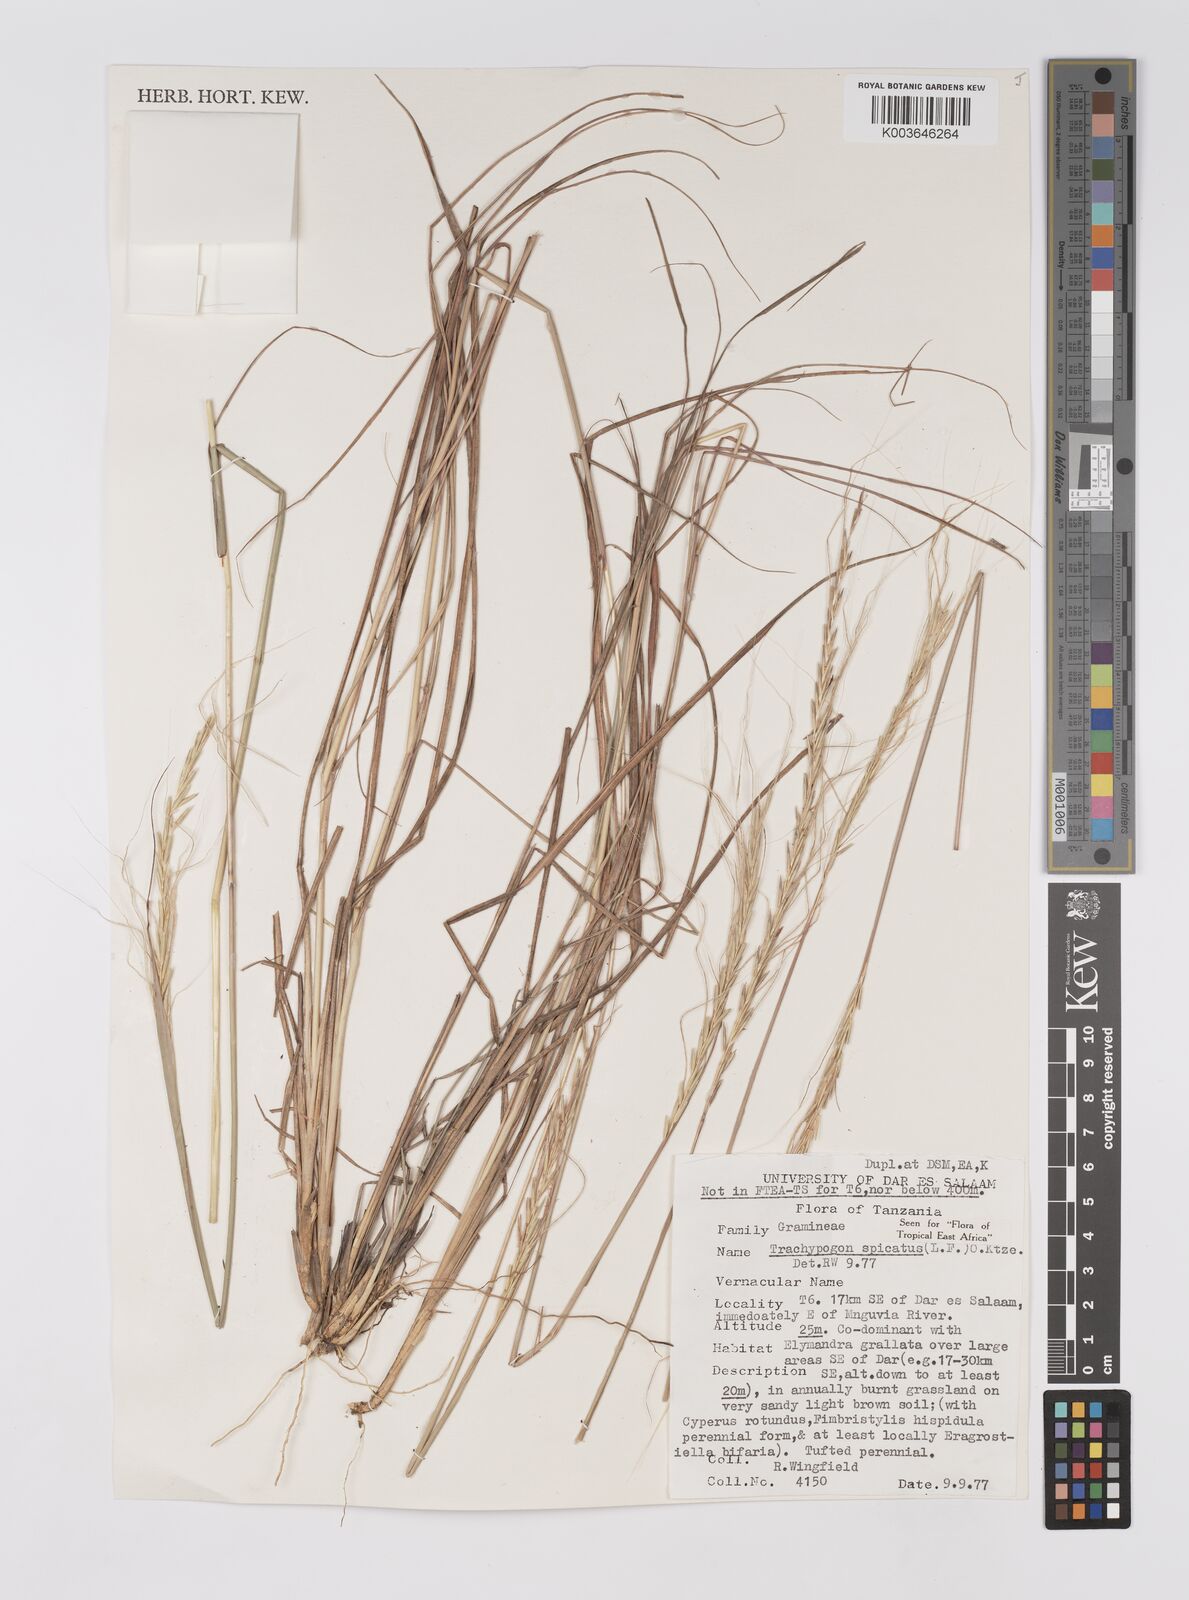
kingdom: Plantae
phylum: Tracheophyta
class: Liliopsida
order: Poales
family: Poaceae
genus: Trachypogon
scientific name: Trachypogon spicatus
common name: Crinkle-awn
